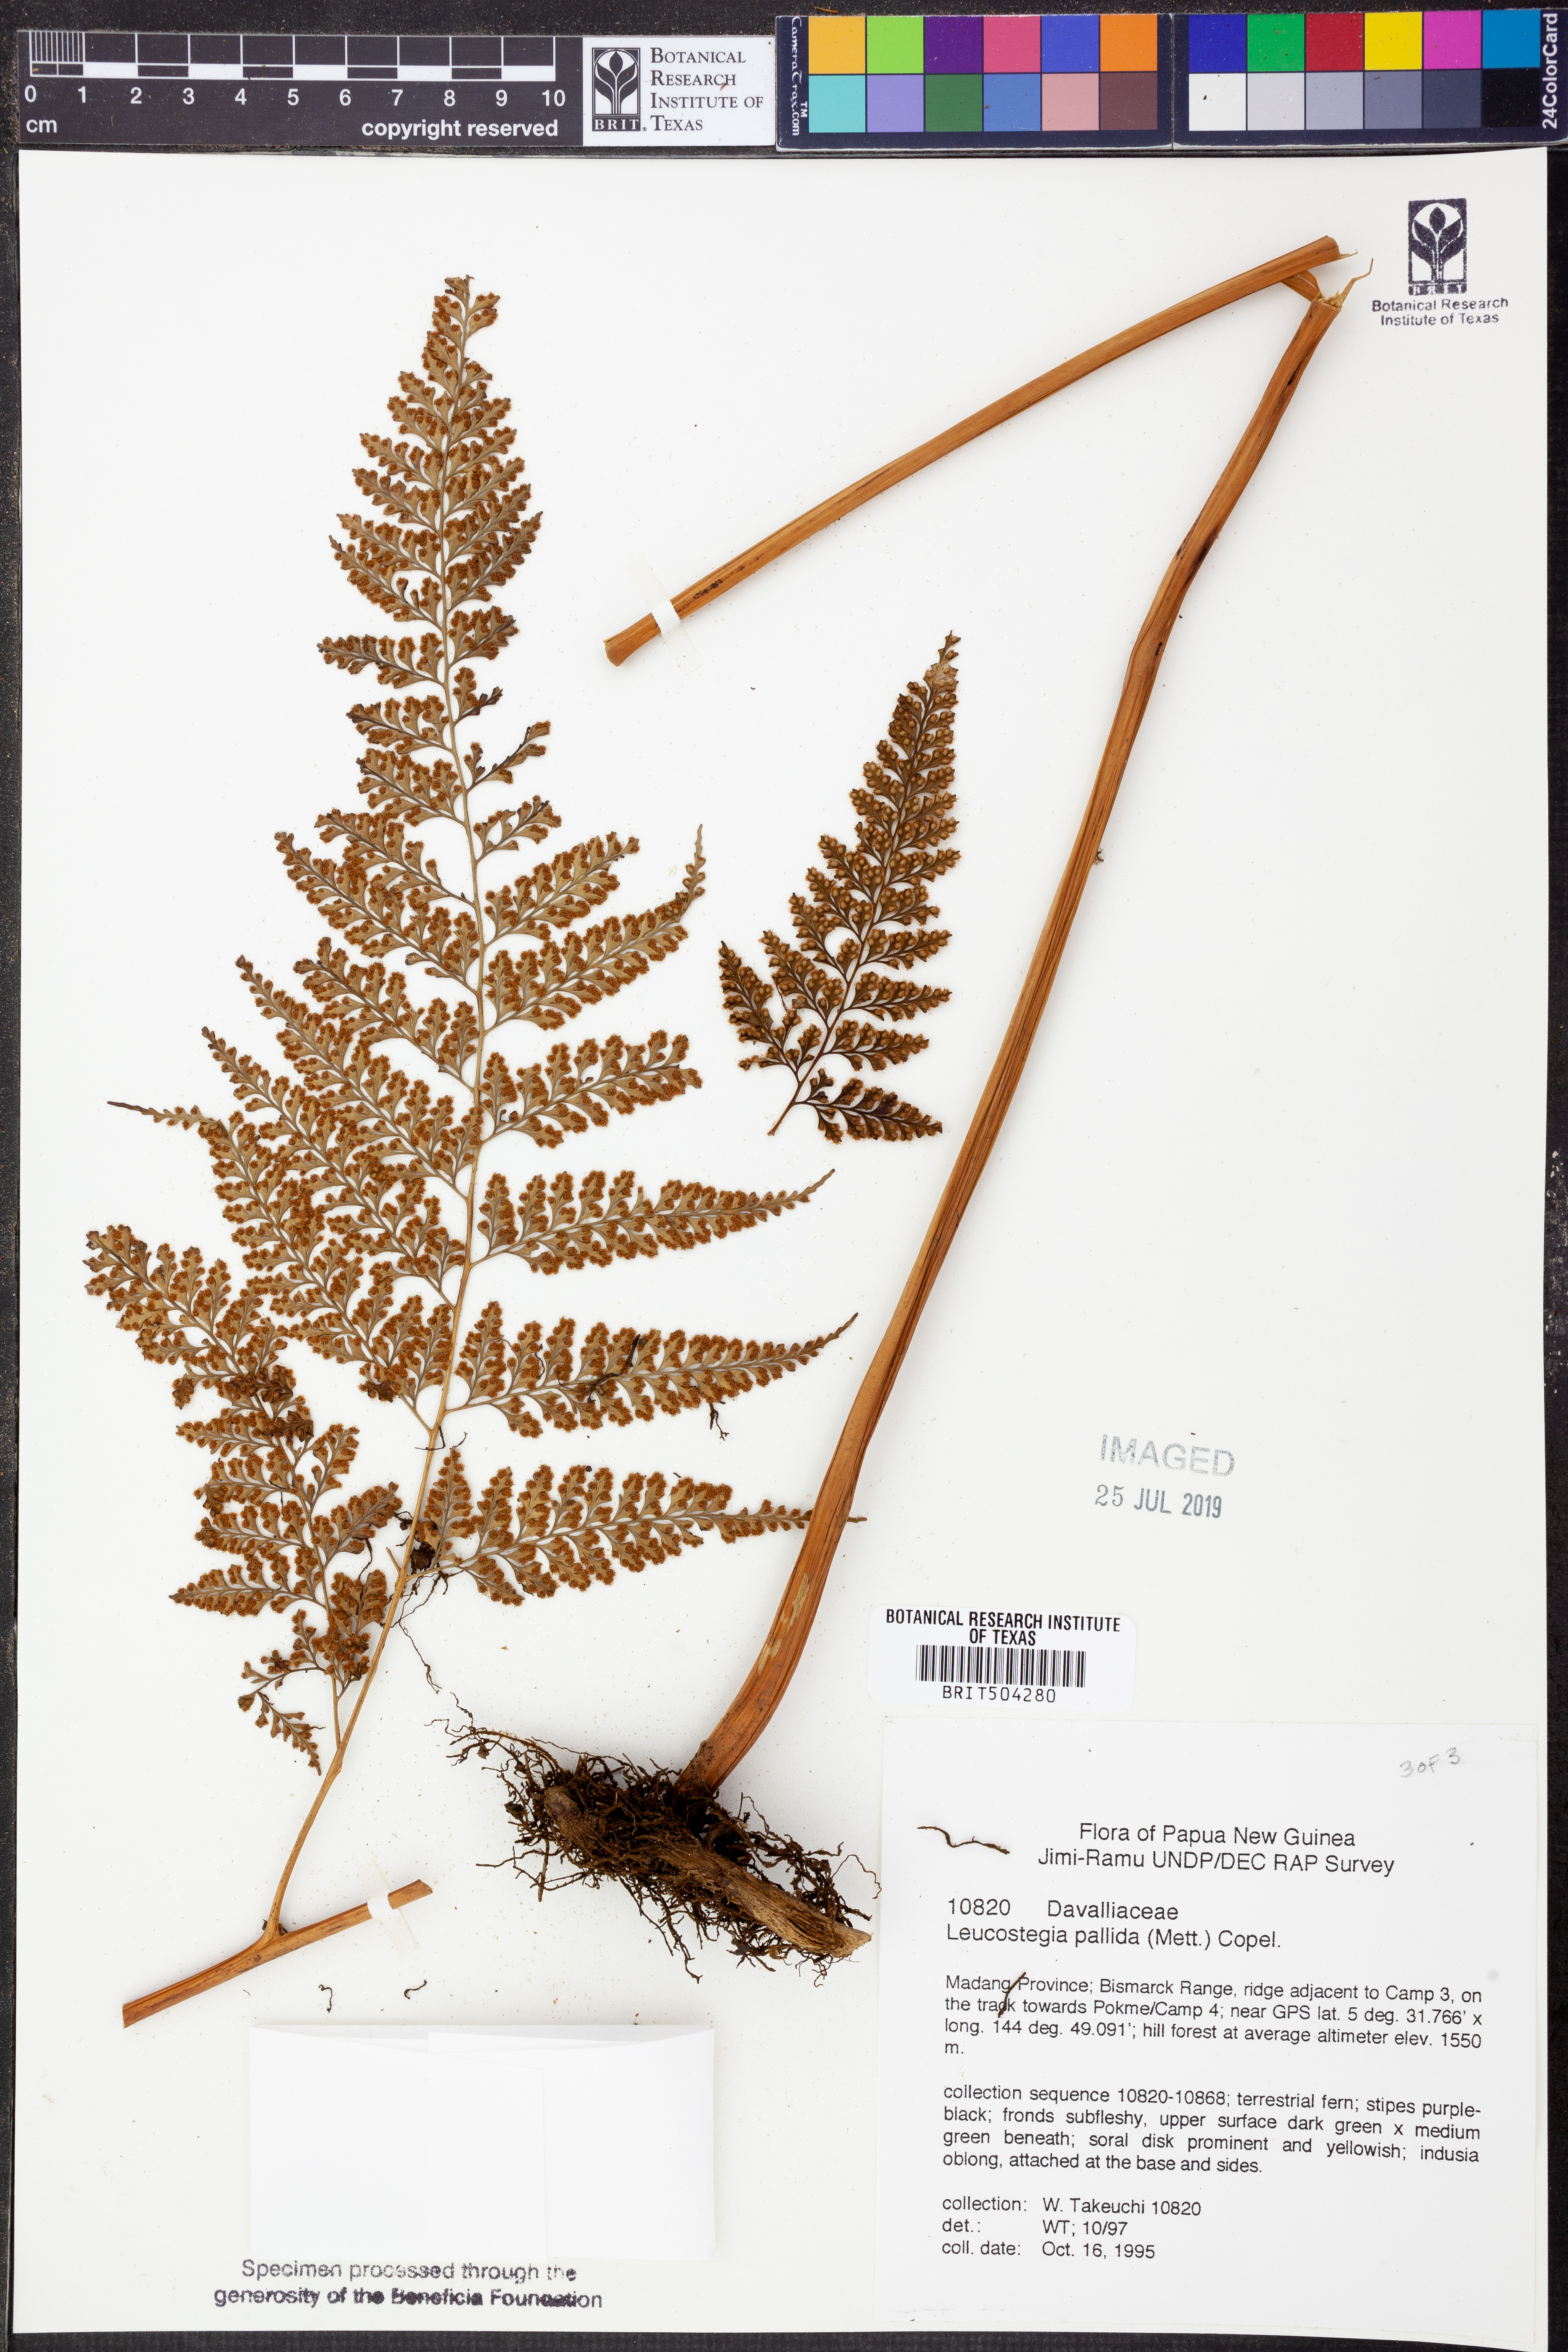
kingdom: Plantae
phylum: Tracheophyta
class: Polypodiopsida
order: Polypodiales
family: Hypodematiaceae
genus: Leucostegia
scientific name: Leucostegia pallida
